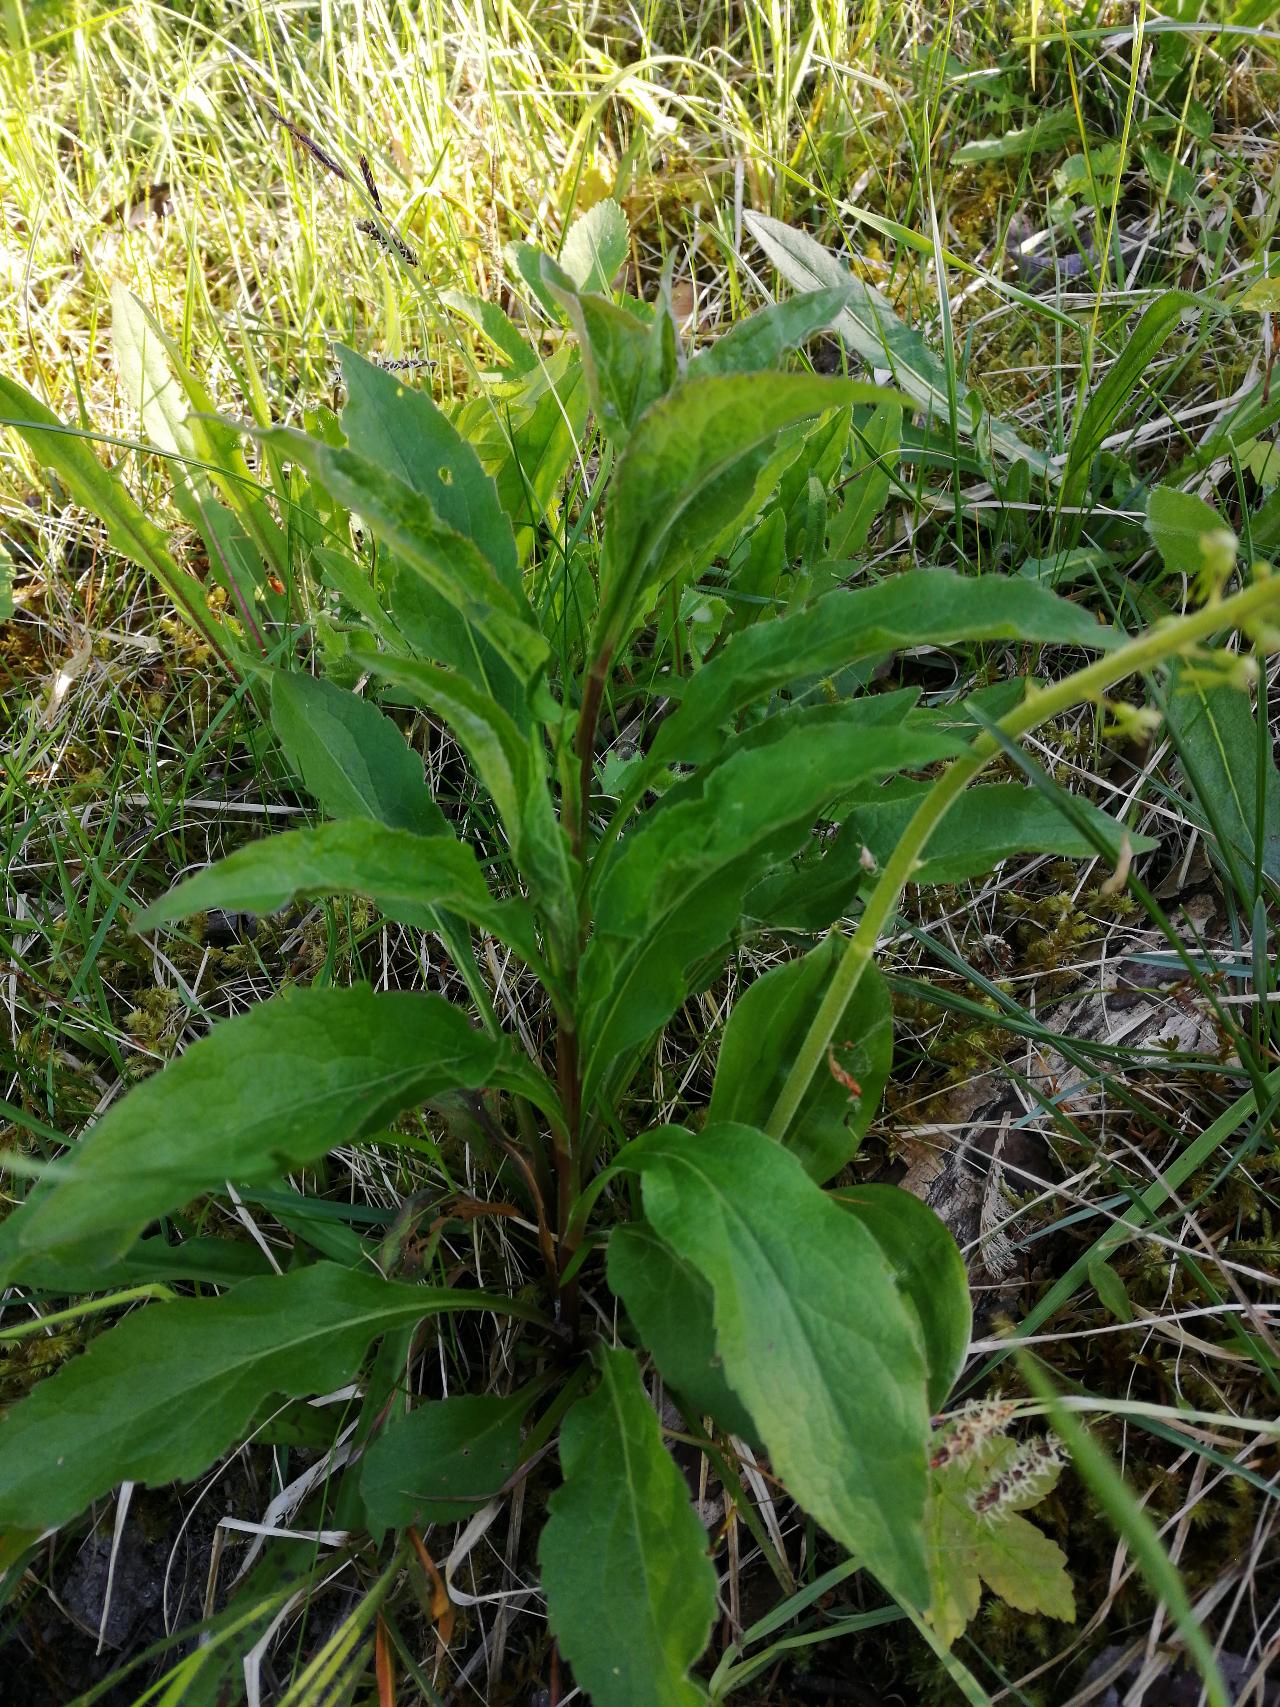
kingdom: Plantae
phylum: Tracheophyta
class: Magnoliopsida
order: Asterales
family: Asteraceae
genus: Solidago
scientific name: Solidago virgaurea
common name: Almindelig gyldenris
